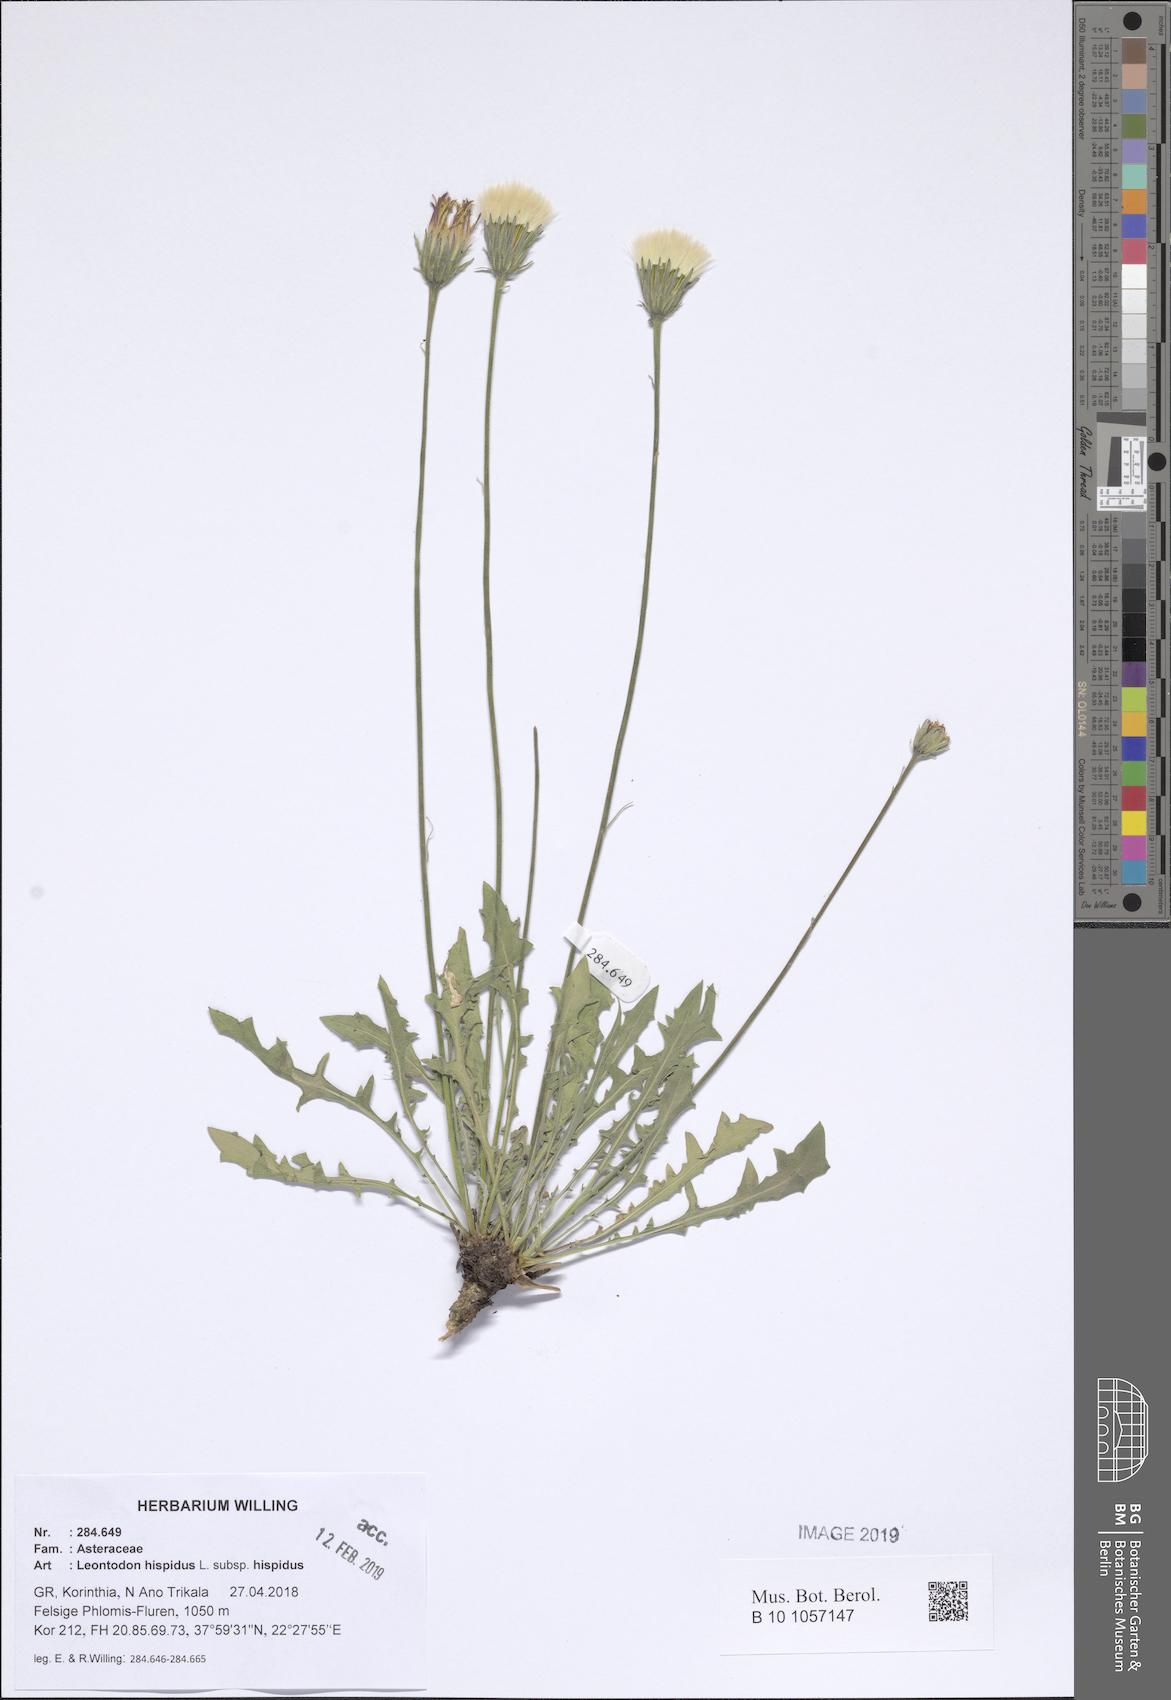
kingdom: Plantae
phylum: Tracheophyta
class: Magnoliopsida
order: Asterales
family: Asteraceae
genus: Leontodon
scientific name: Leontodon hispidus
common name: Rough hawkbit
